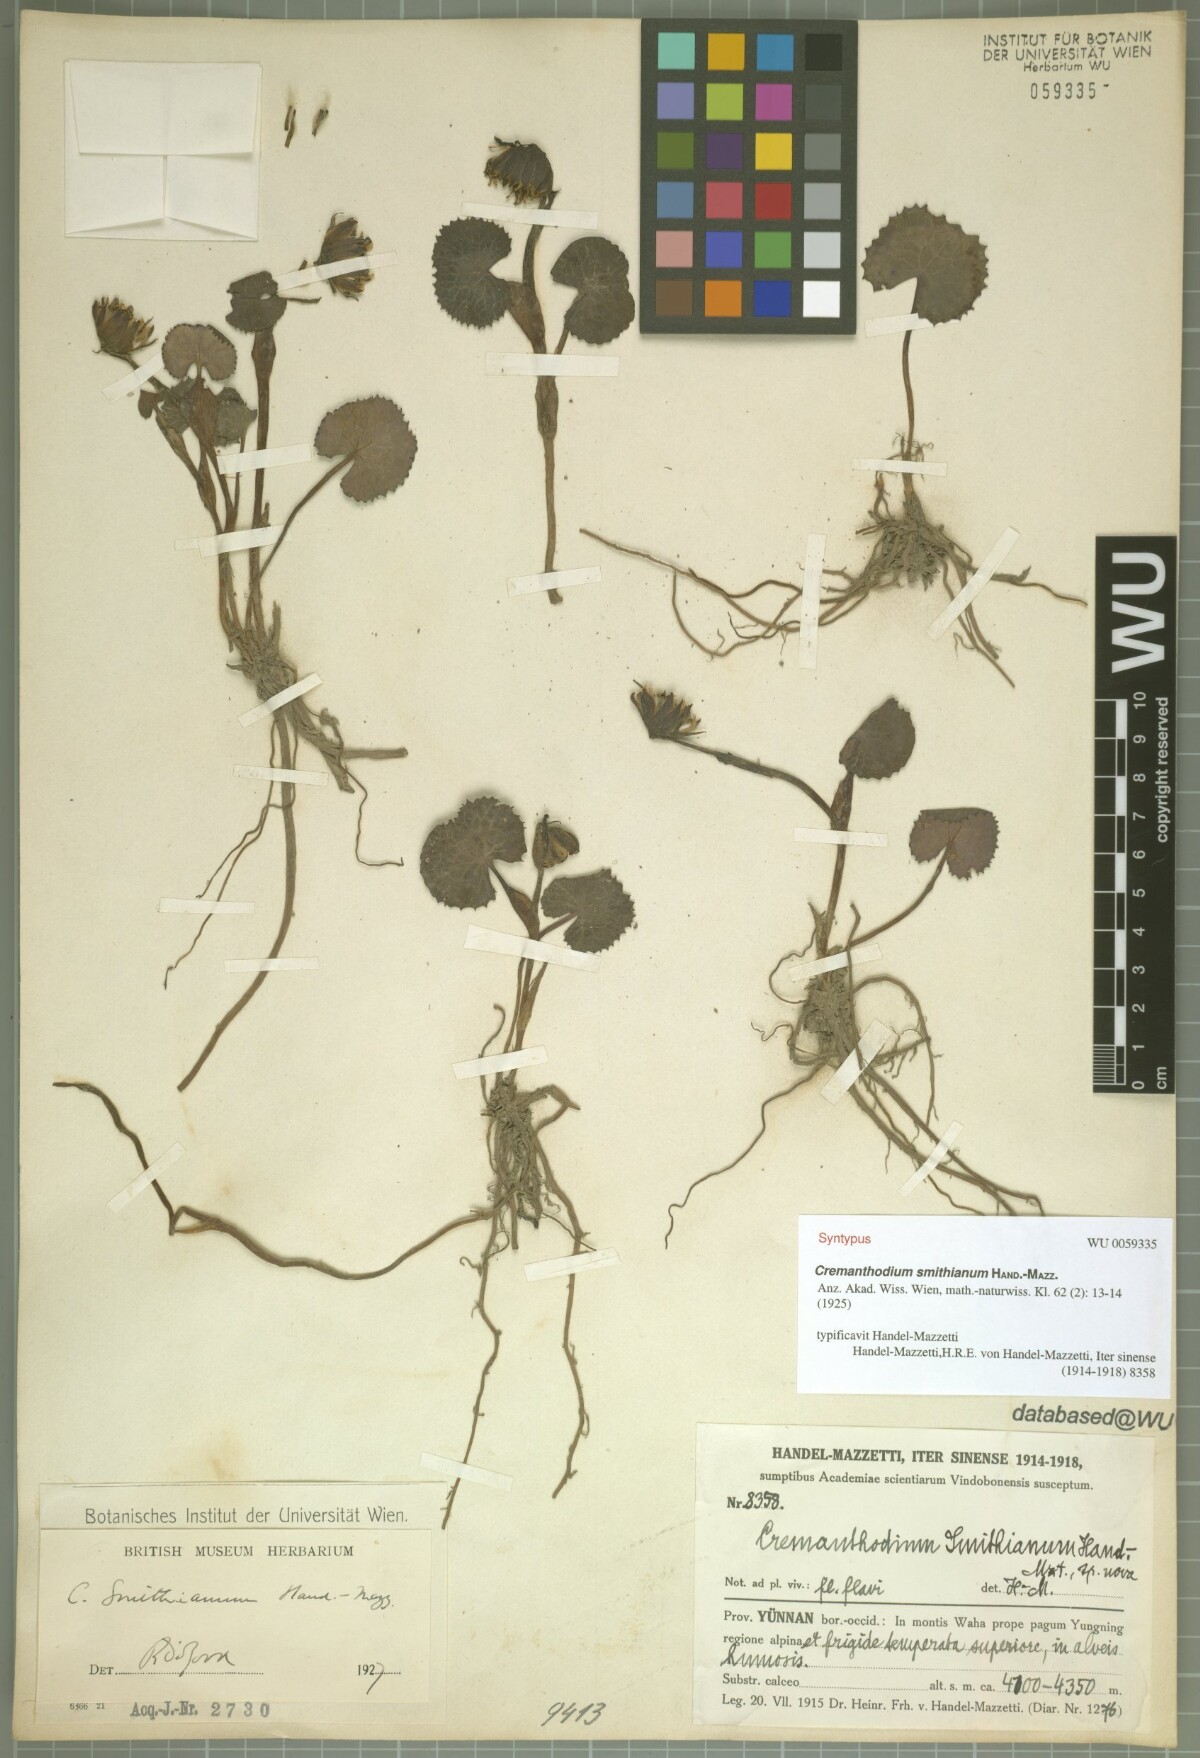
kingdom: Plantae
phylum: Tracheophyta
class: Magnoliopsida
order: Asterales
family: Asteraceae
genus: Cremanthodium
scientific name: Cremanthodium smithianum
